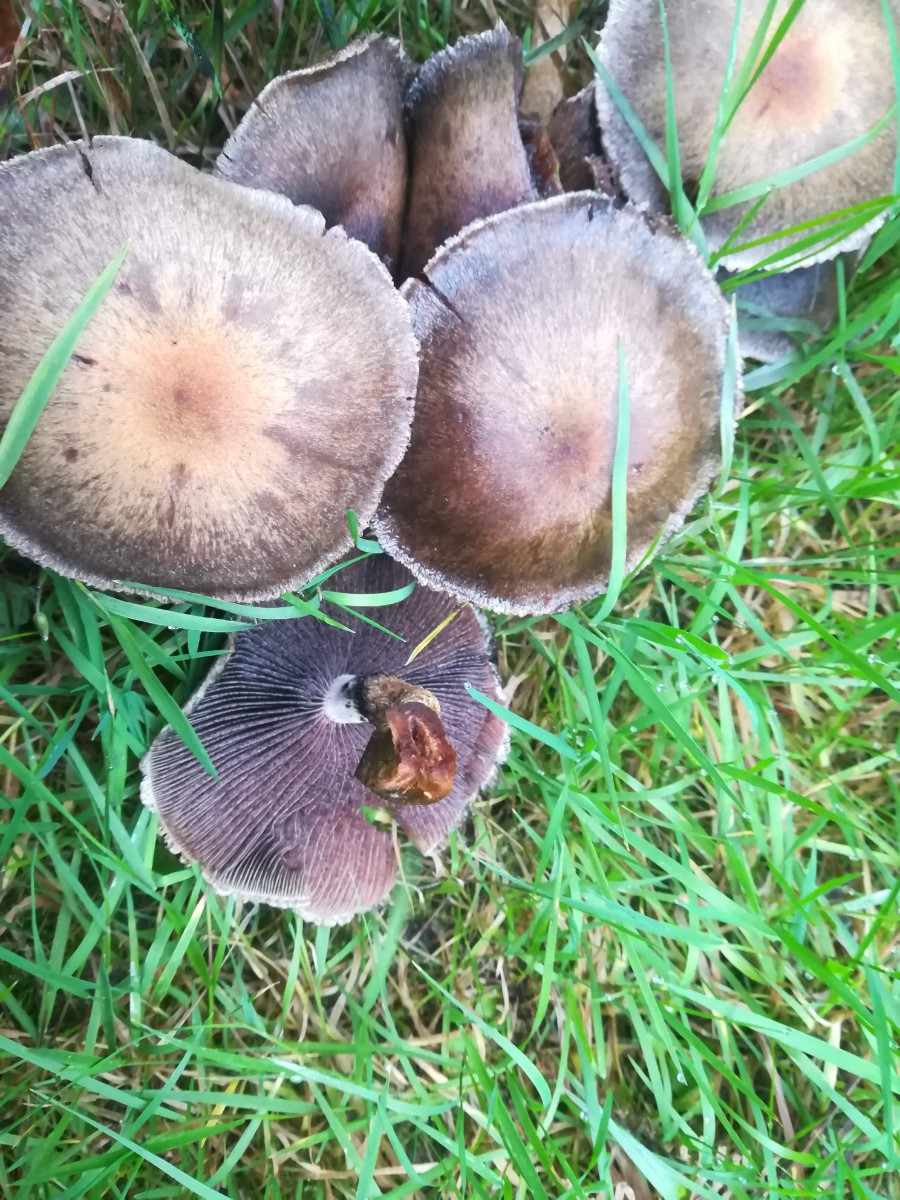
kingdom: Fungi
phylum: Basidiomycota
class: Agaricomycetes
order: Agaricales
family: Psathyrellaceae
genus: Lacrymaria
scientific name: Lacrymaria lacrymabunda
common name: grædende mørkhat
